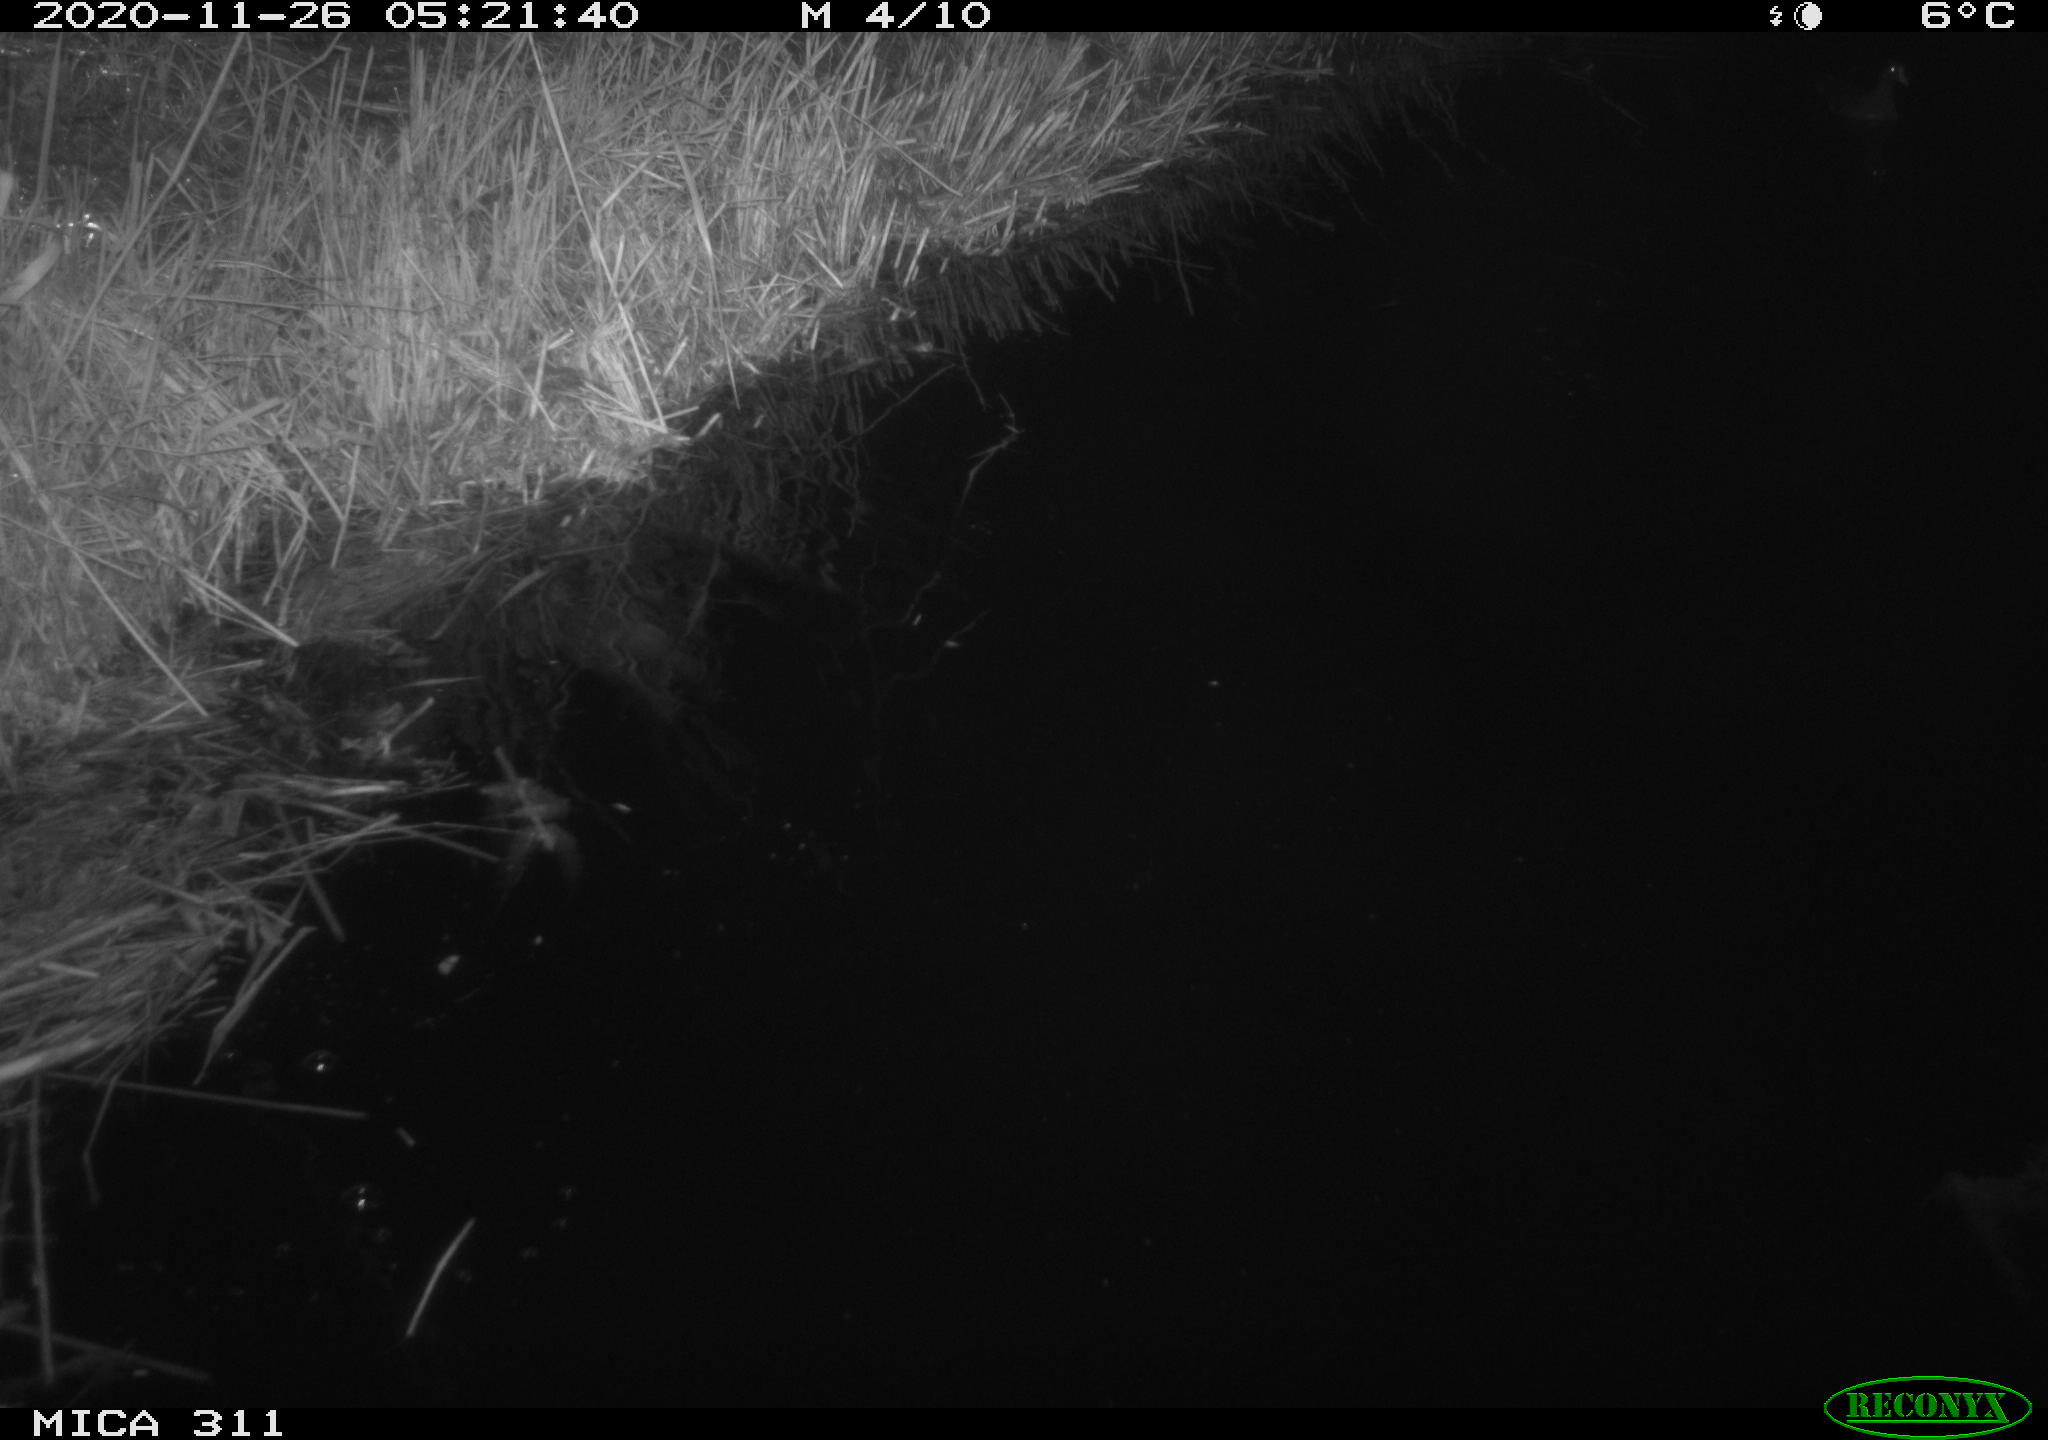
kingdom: Animalia
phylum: Chordata
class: Aves
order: Anseriformes
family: Anatidae
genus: Anas
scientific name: Anas platyrhynchos
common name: Mallard
